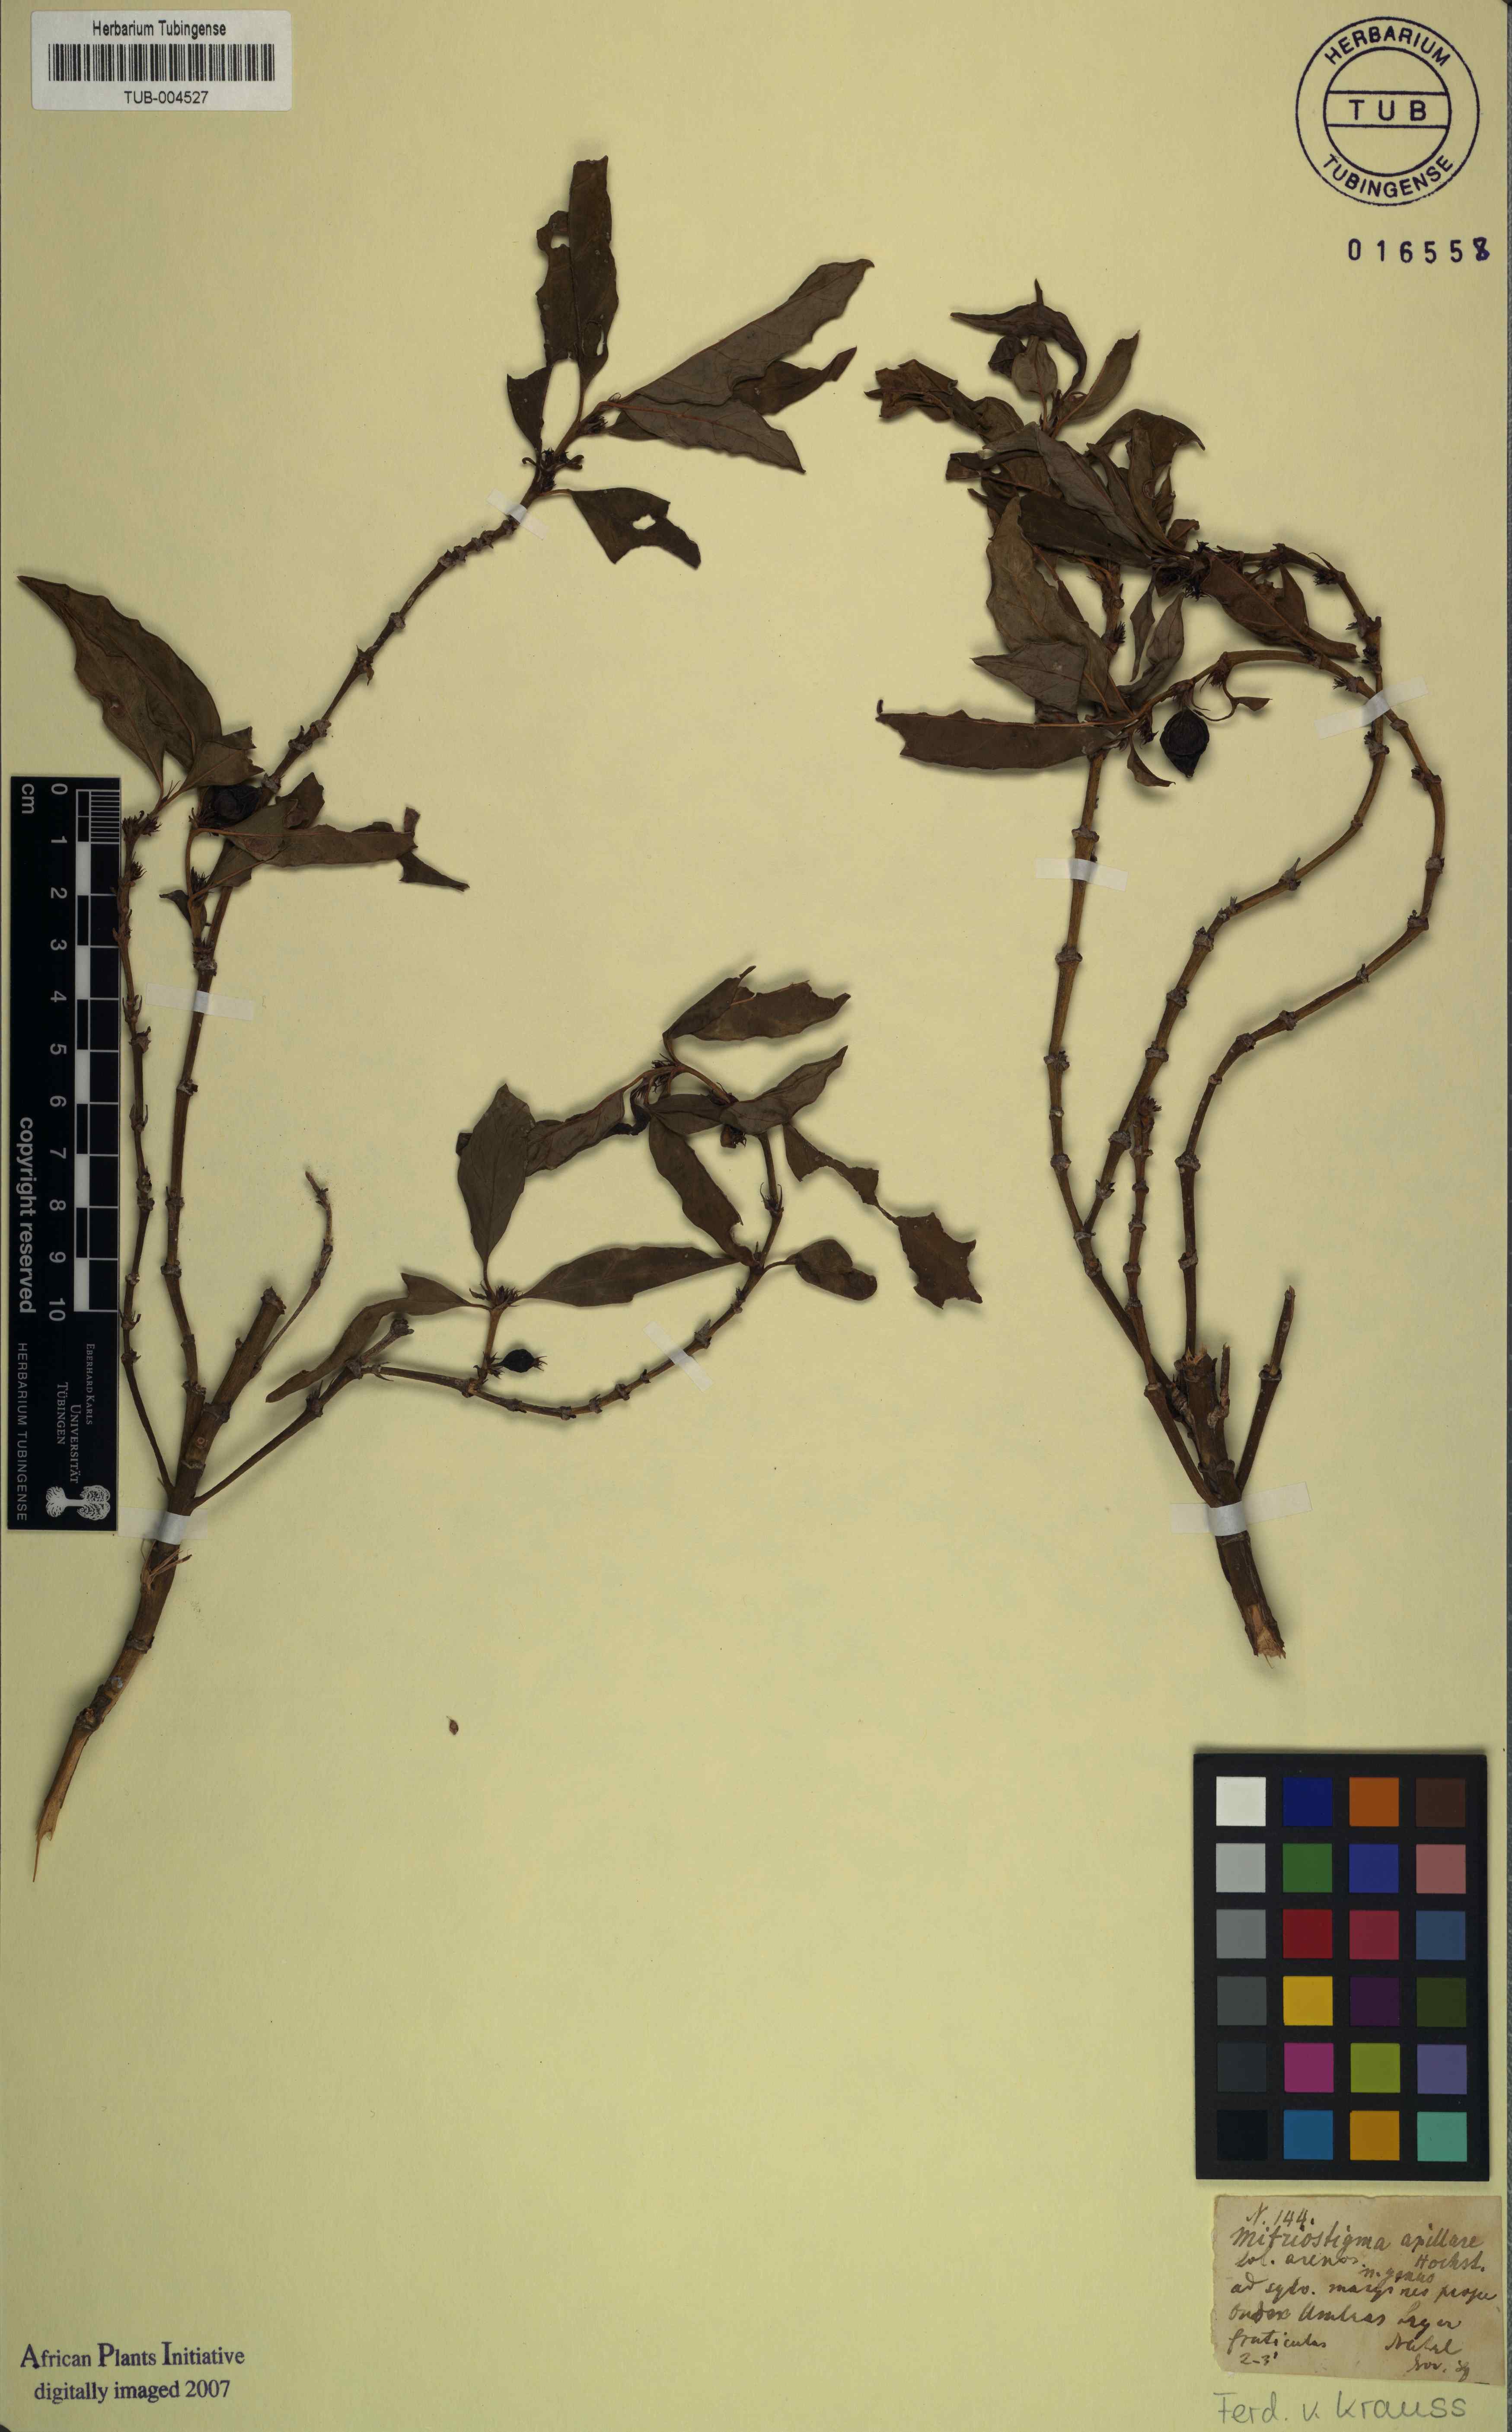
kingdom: Plantae
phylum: Tracheophyta
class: Magnoliopsida
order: Gentianales
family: Rubiaceae
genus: Mitriostigma
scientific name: Mitriostigma axillare
